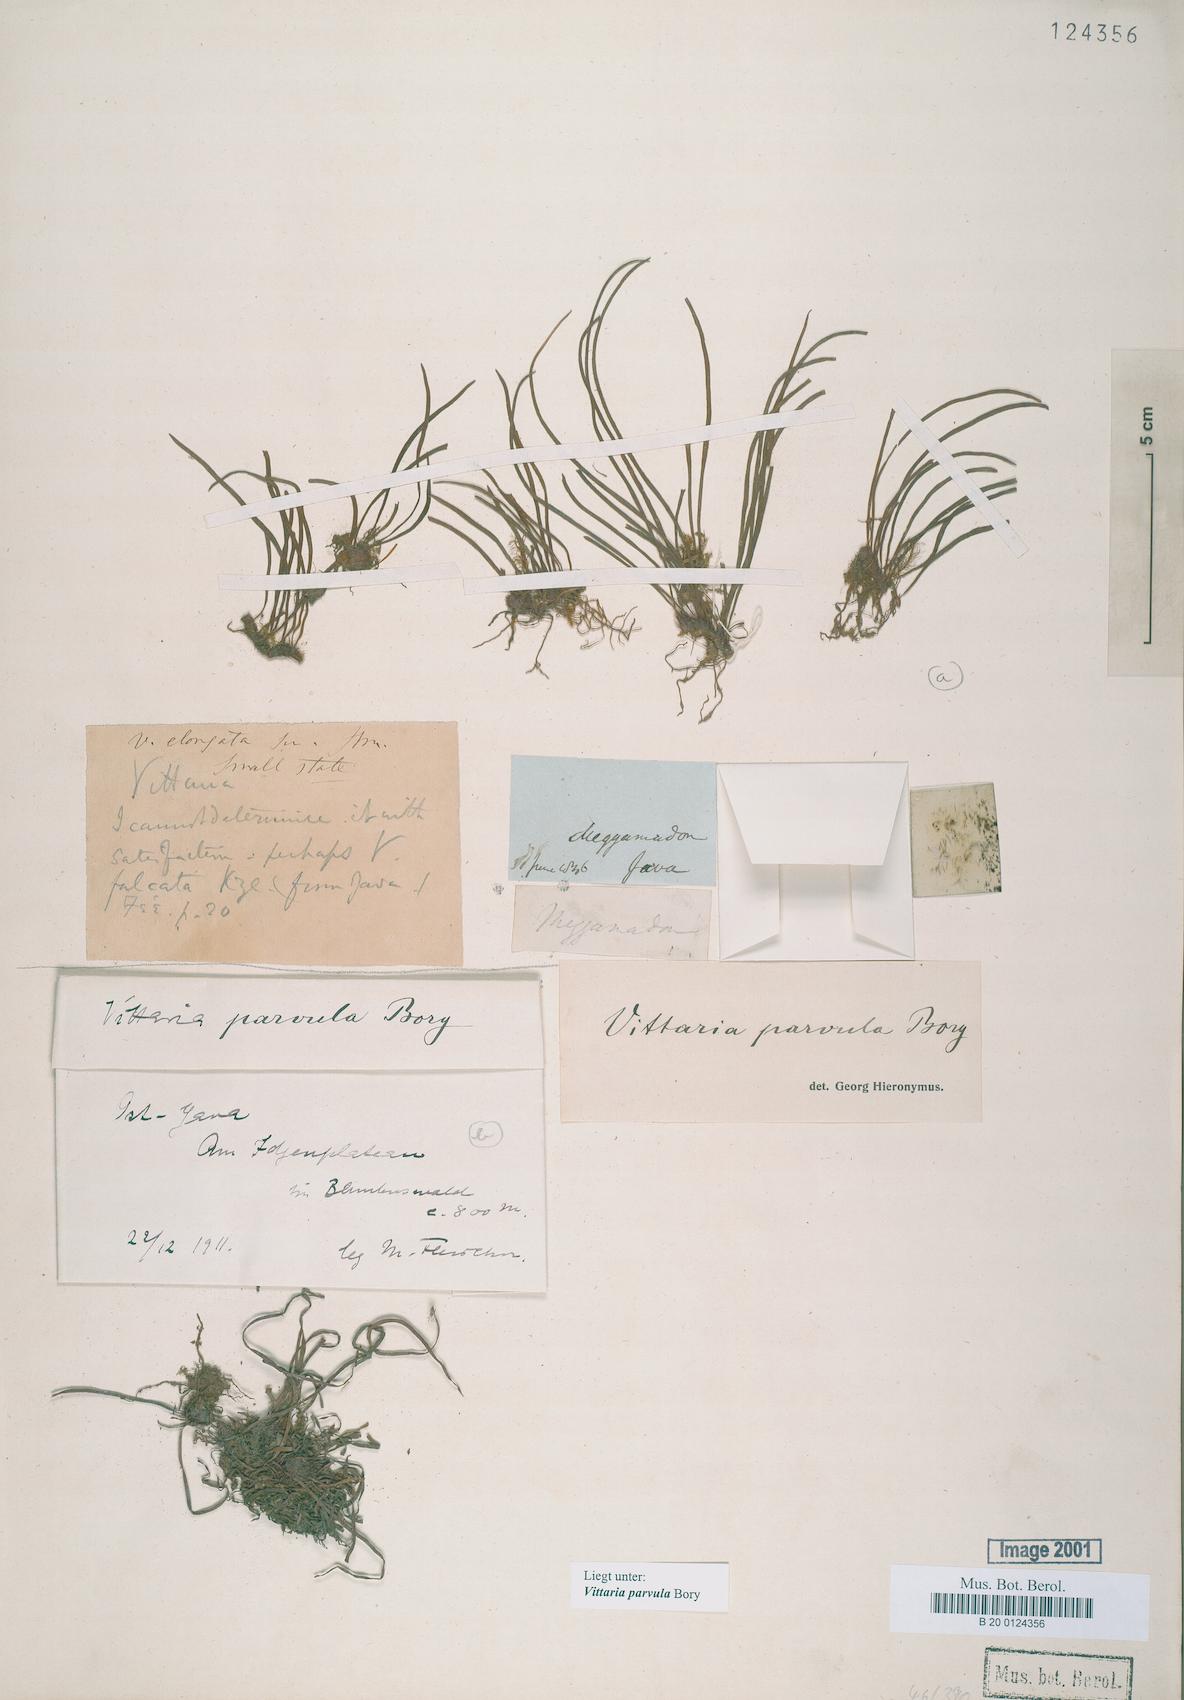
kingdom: Plantae
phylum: Tracheophyta
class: Polypodiopsida
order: Polypodiales
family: Pteridaceae
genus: Haplopteris
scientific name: Haplopteris elongata
